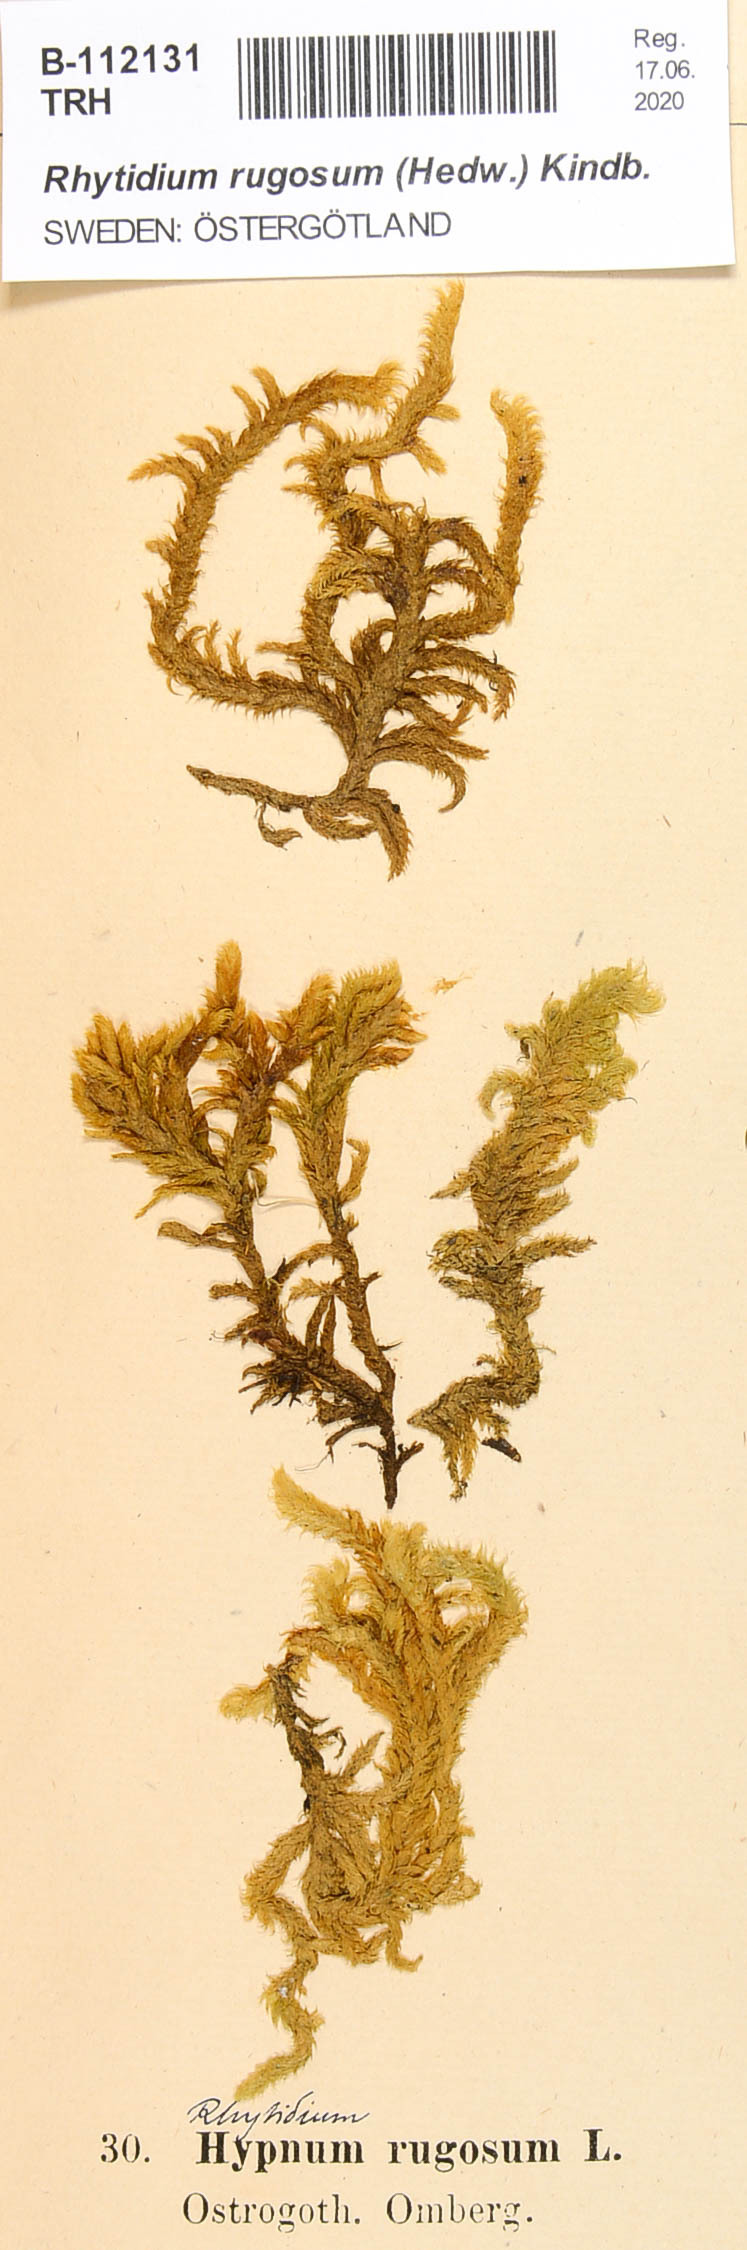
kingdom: Plantae
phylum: Bryophyta
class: Bryopsida
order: Hypnales
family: Rhytidiaceae
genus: Rhytidium
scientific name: Rhytidium rugosum
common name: Wrinkle-leaved moss
